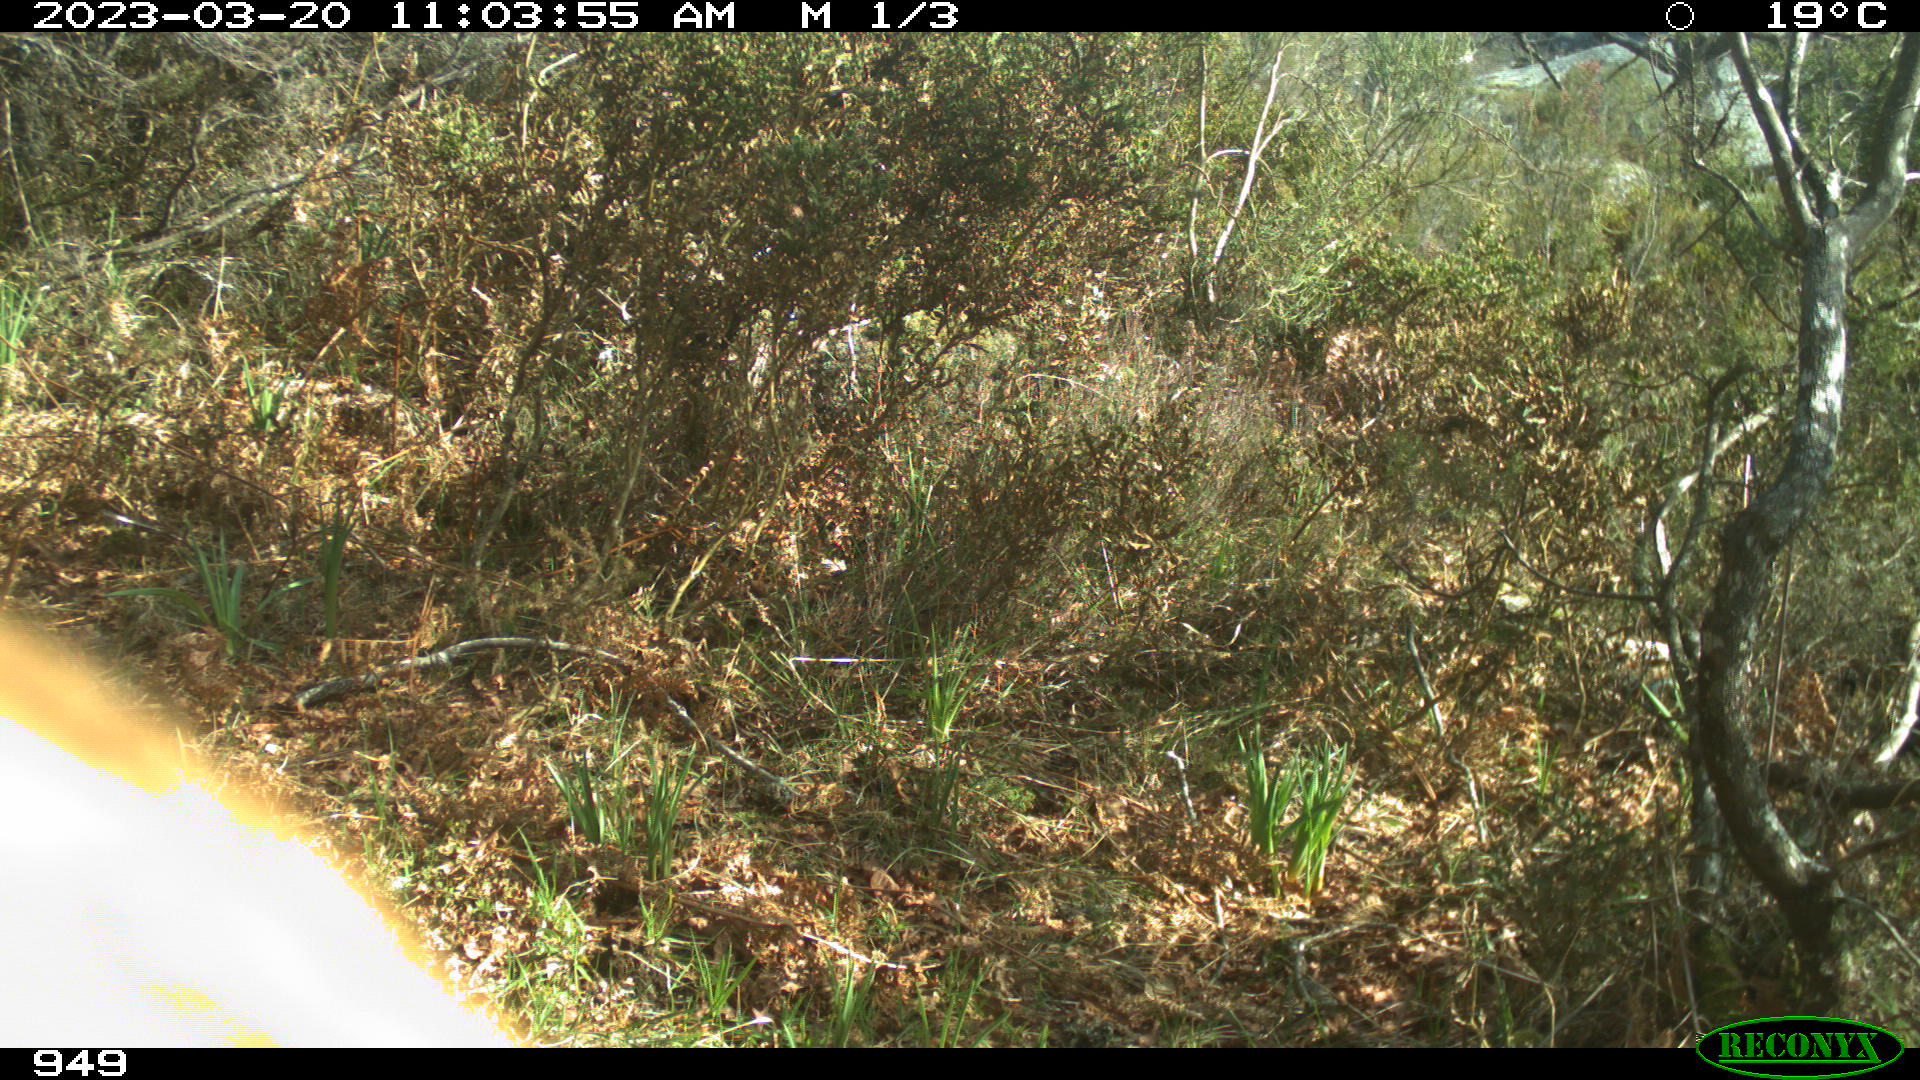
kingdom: Animalia
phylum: Chordata
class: Mammalia
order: Artiodactyla
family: Bovidae
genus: Bos
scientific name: Bos taurus
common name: Domesticated cattle
